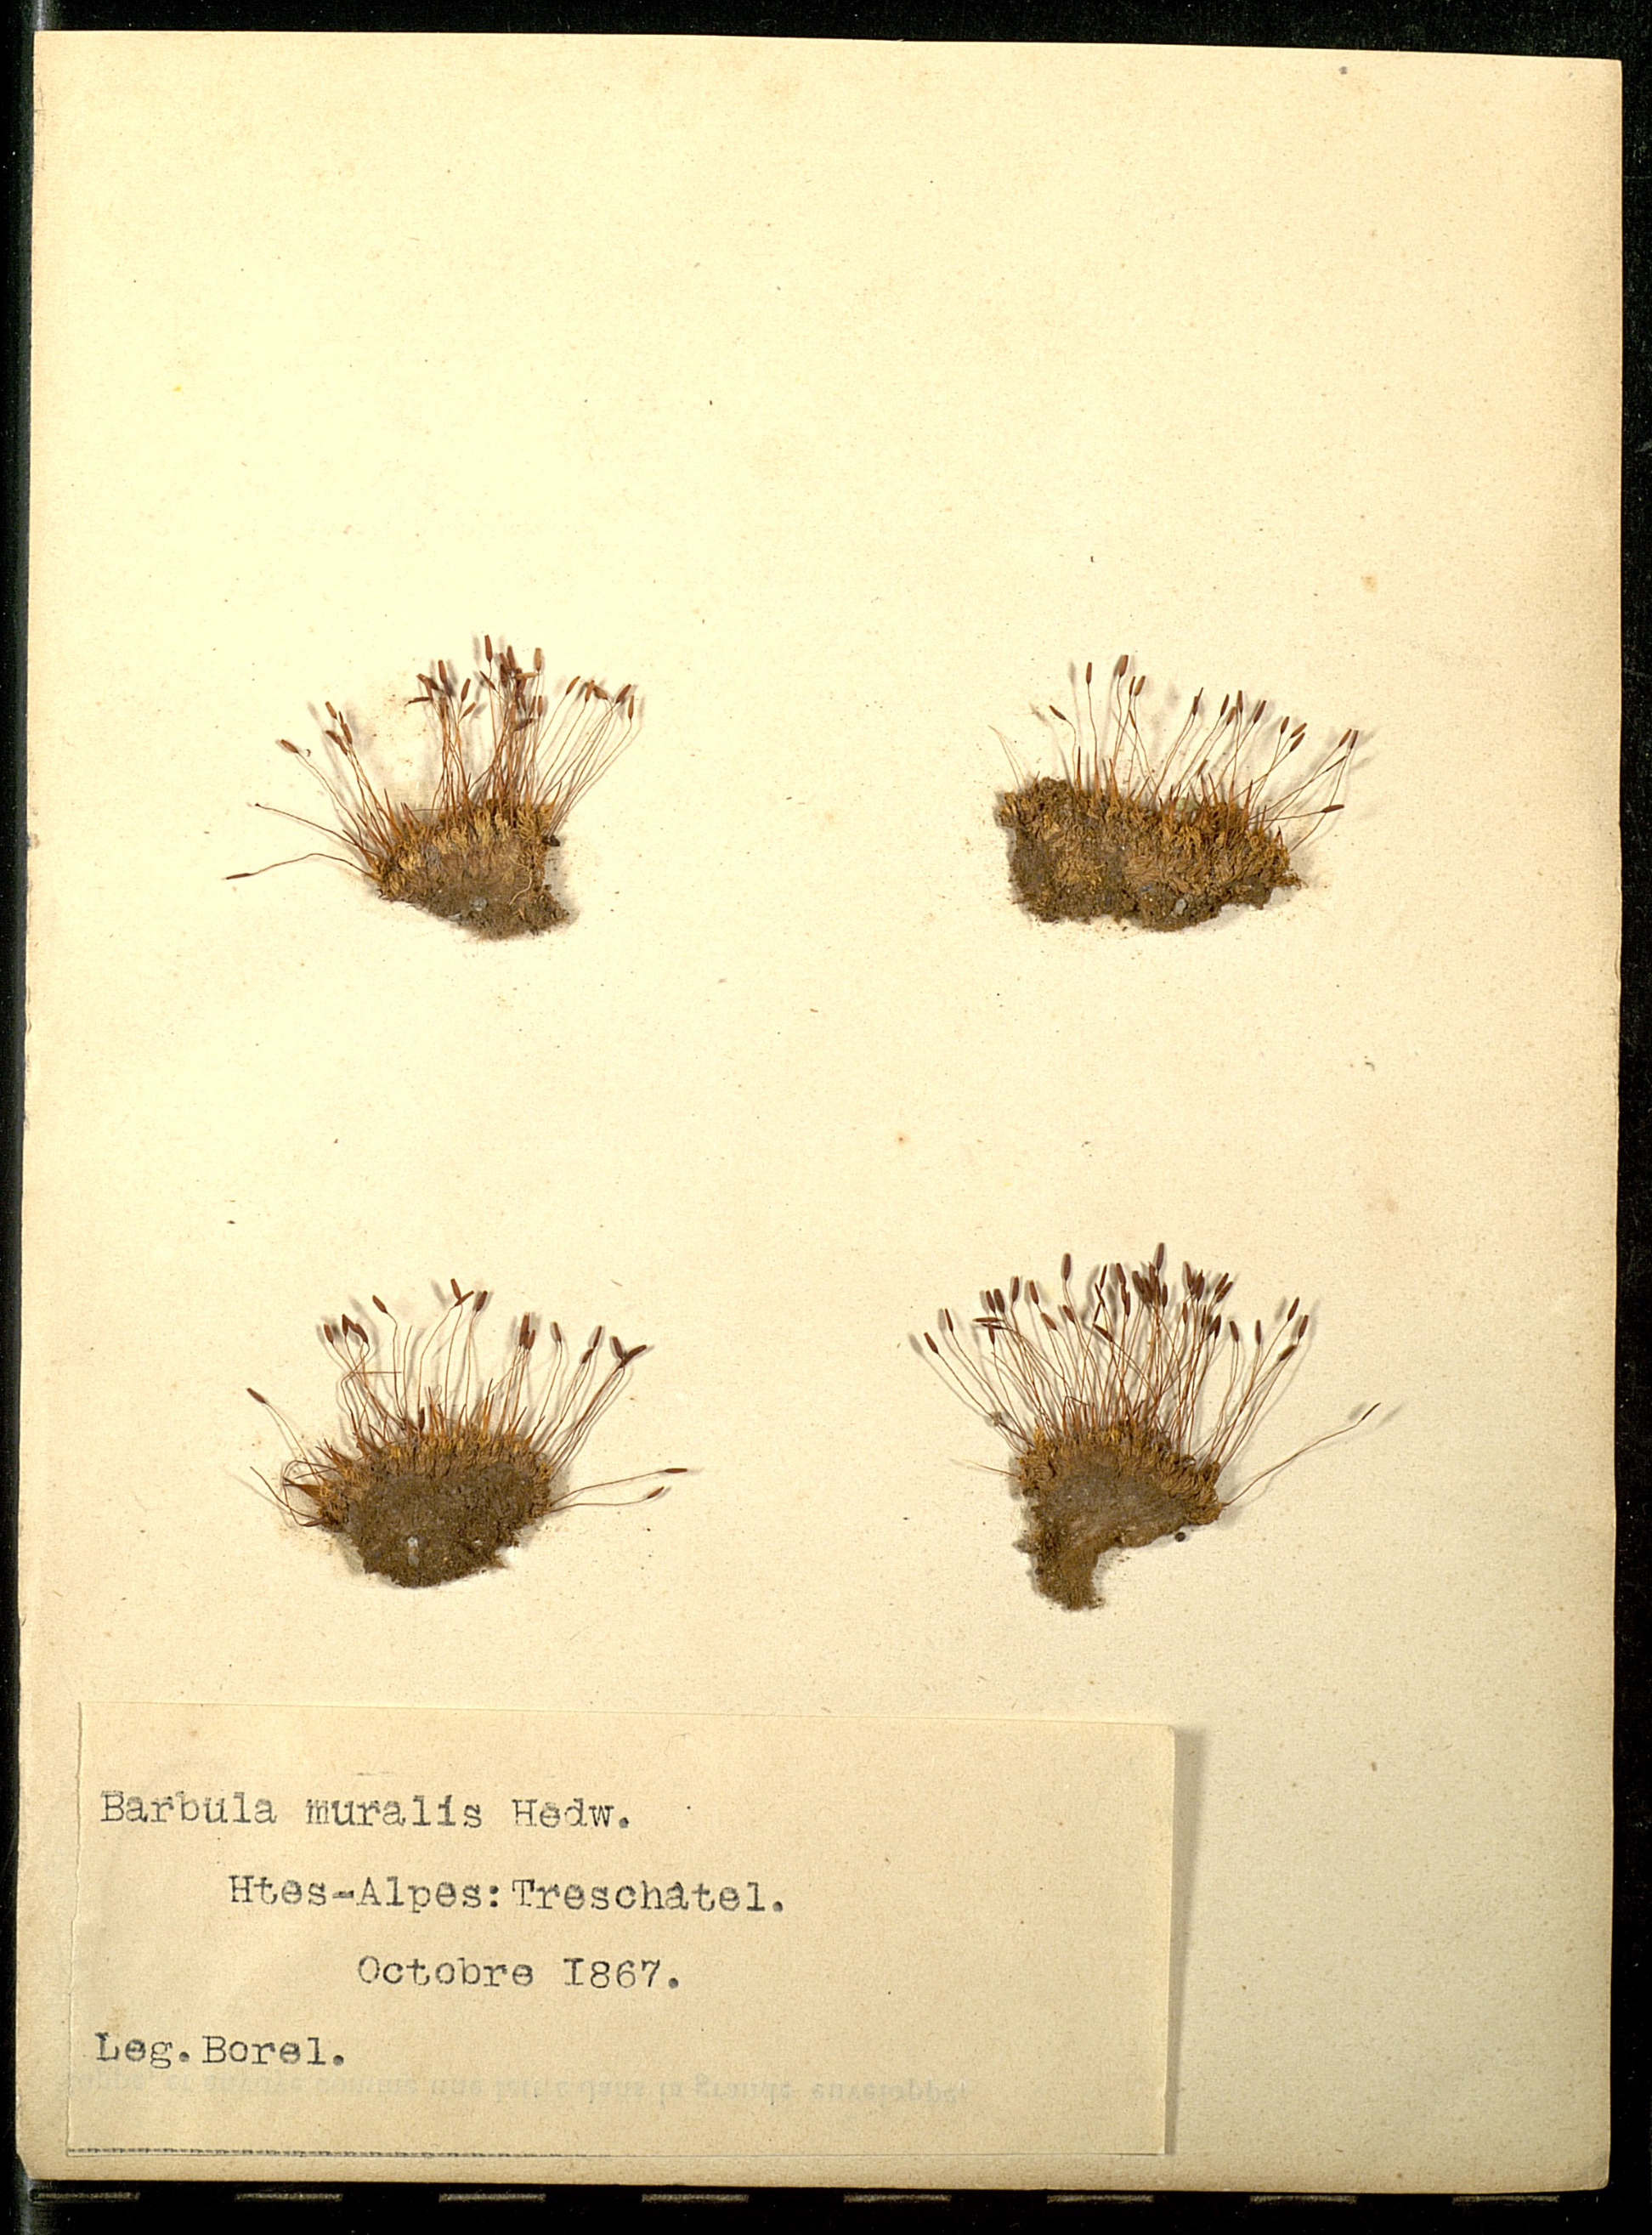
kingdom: Plantae
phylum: Bryophyta
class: Bryopsida
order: Pottiales
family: Pottiaceae
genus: Tortula
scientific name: Tortula muralis
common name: Wall screw-moss
